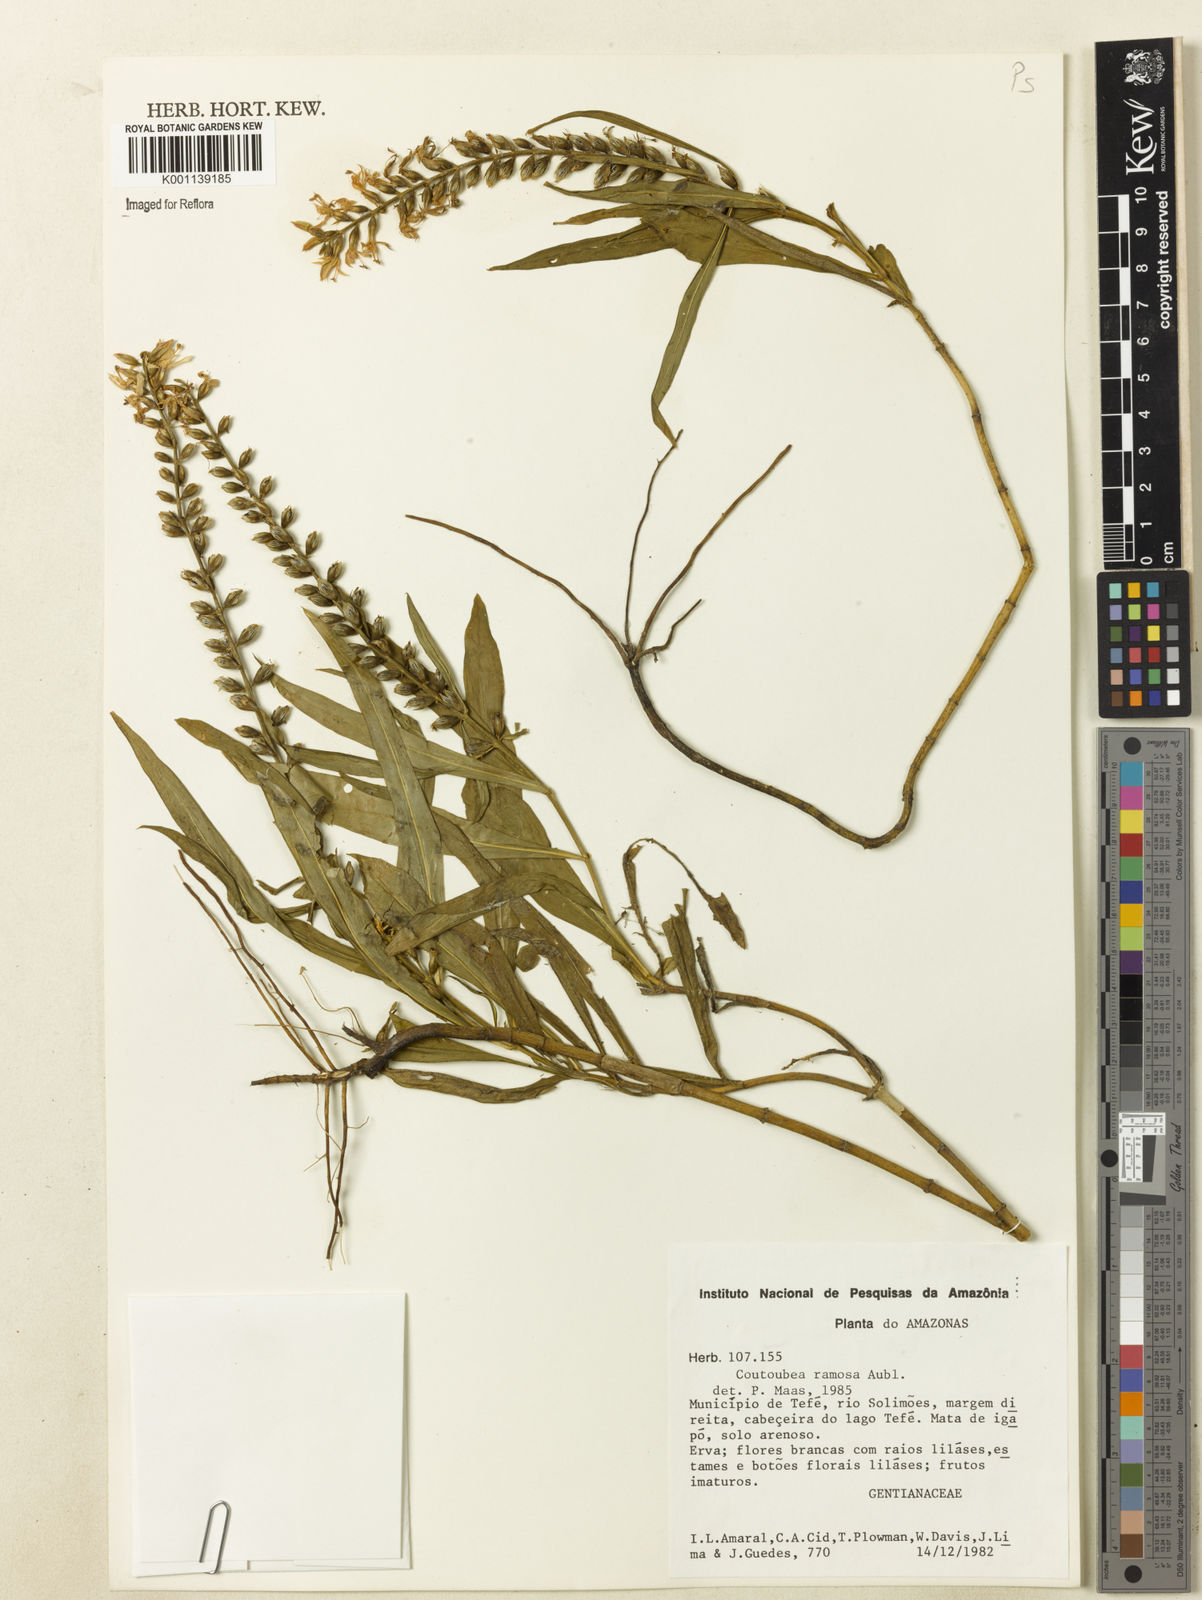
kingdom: Plantae
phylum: Tracheophyta
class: Magnoliopsida
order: Gentianales
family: Gentianaceae
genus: Coutoubea
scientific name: Coutoubea ramosa
